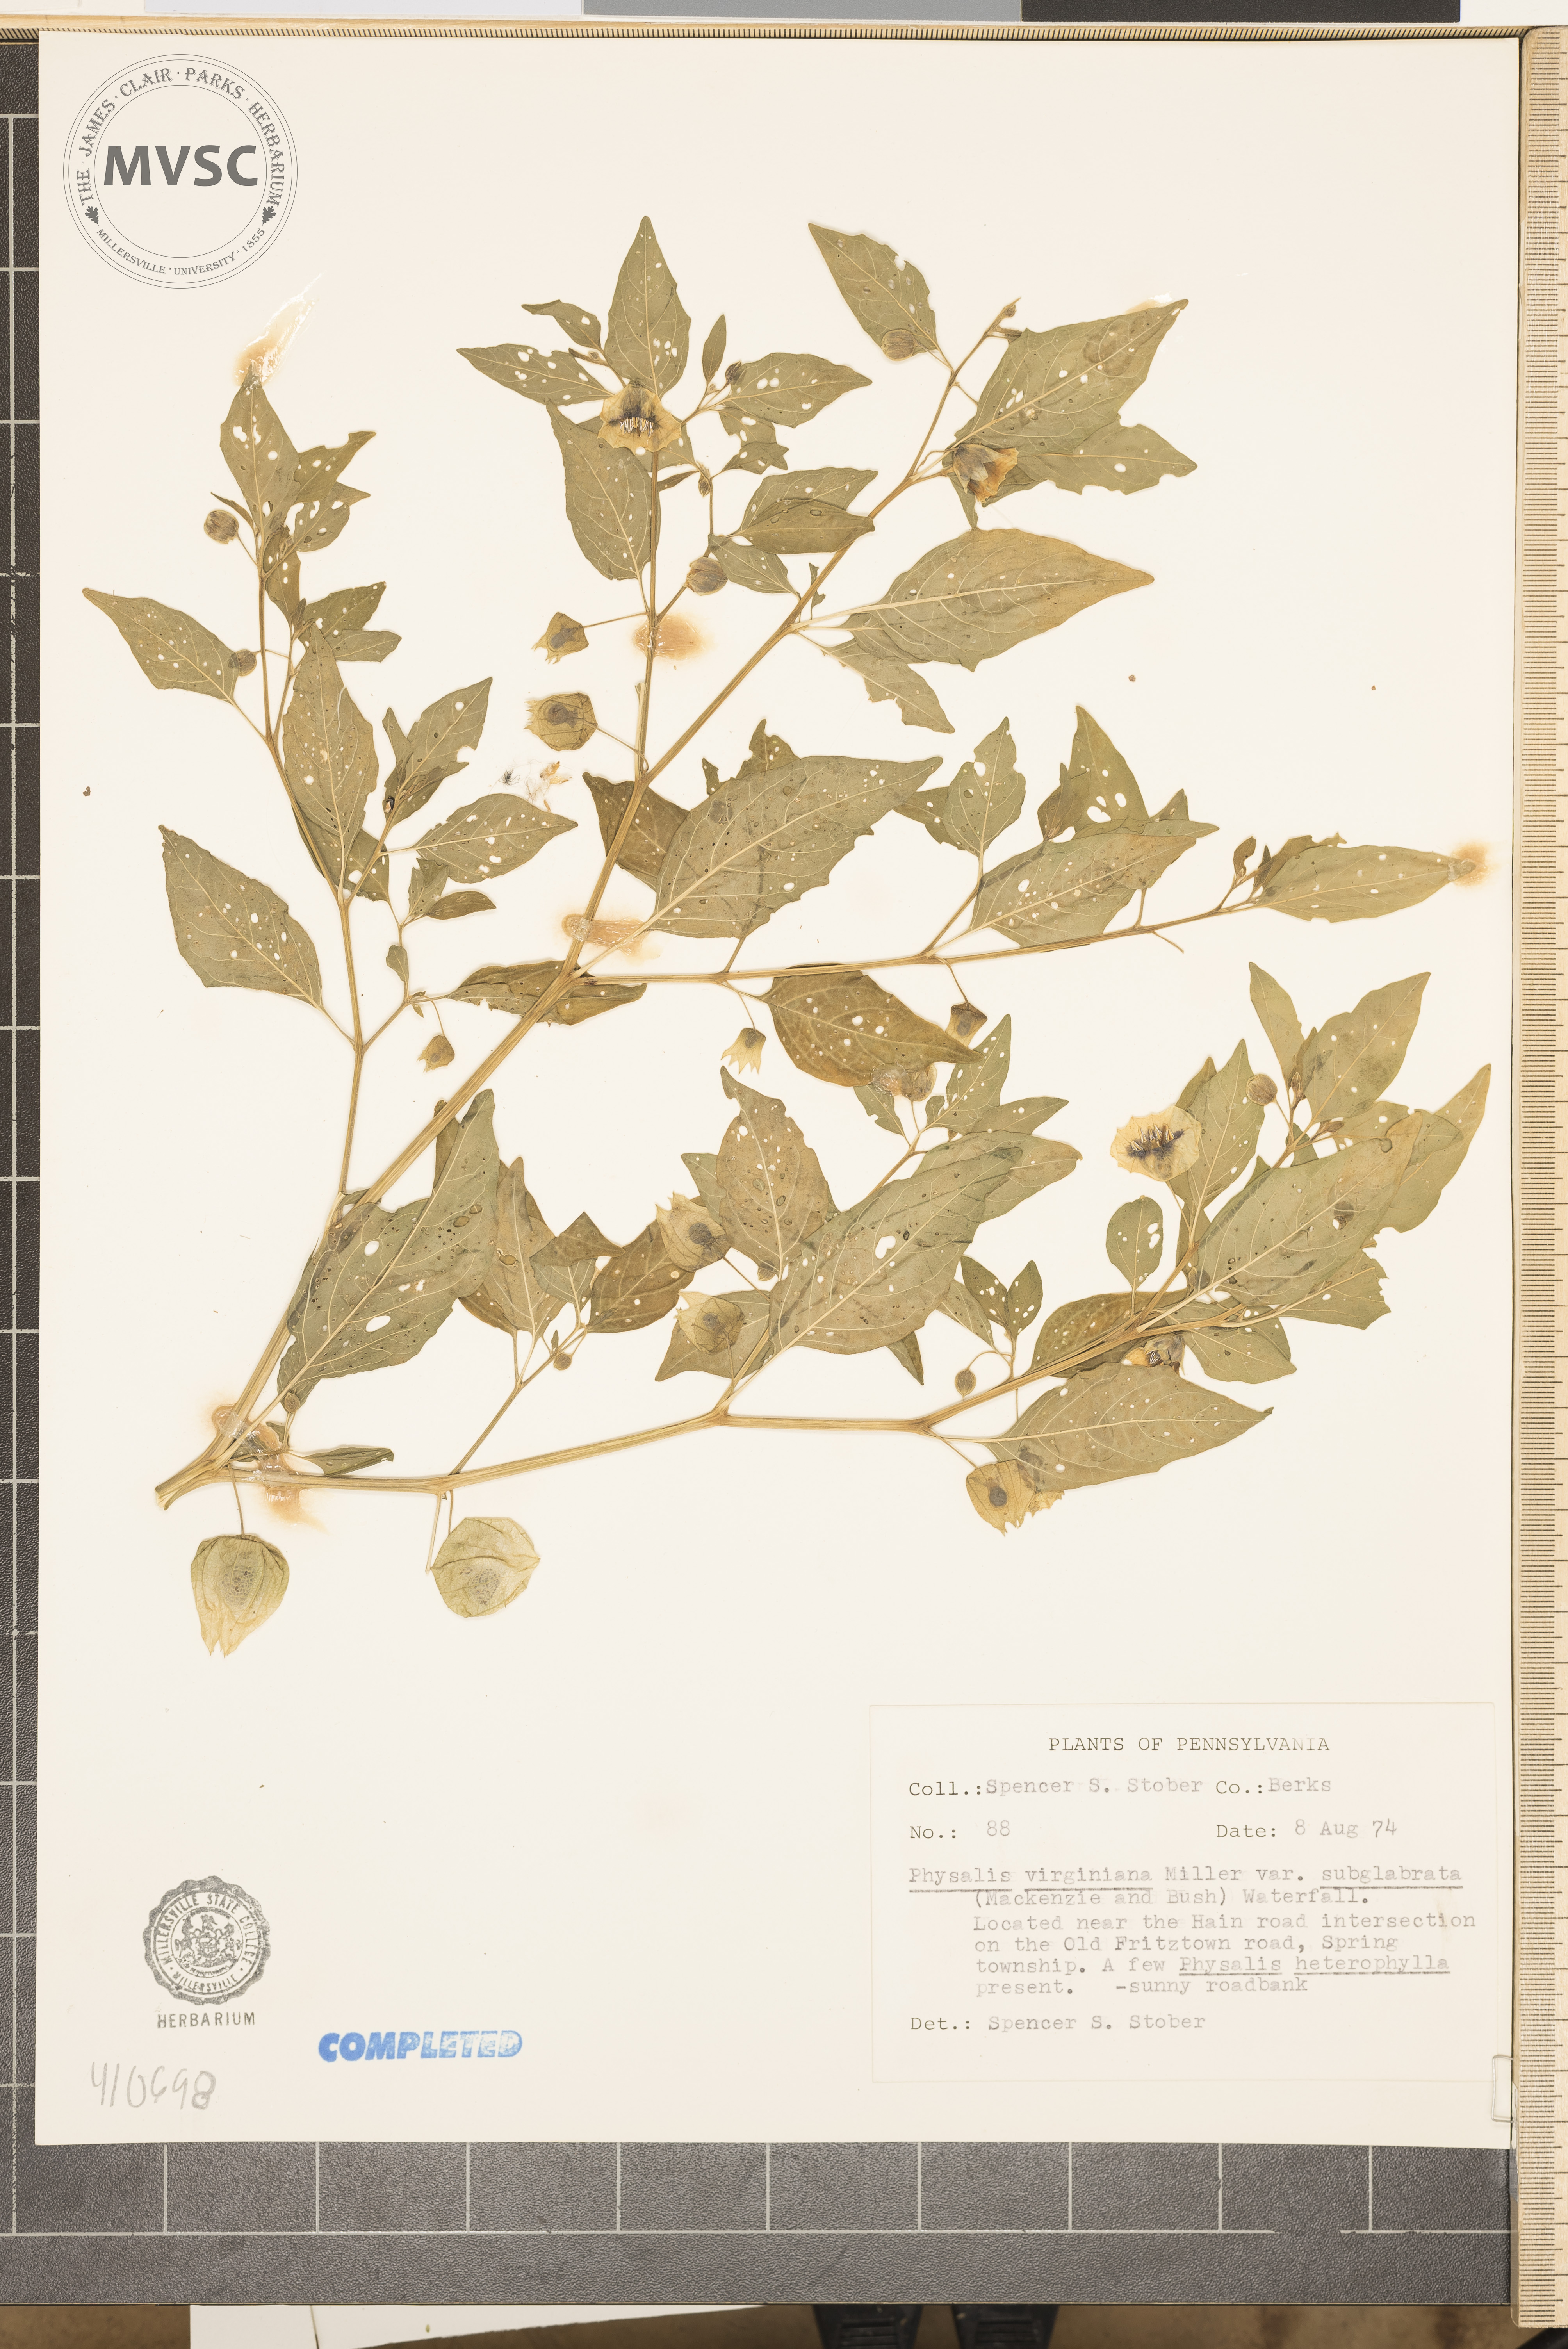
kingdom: Plantae
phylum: Tracheophyta
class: Magnoliopsida
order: Solanales
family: Solanaceae
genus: Physalis
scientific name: Physalis virginiana
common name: Virginia ground-cherry
